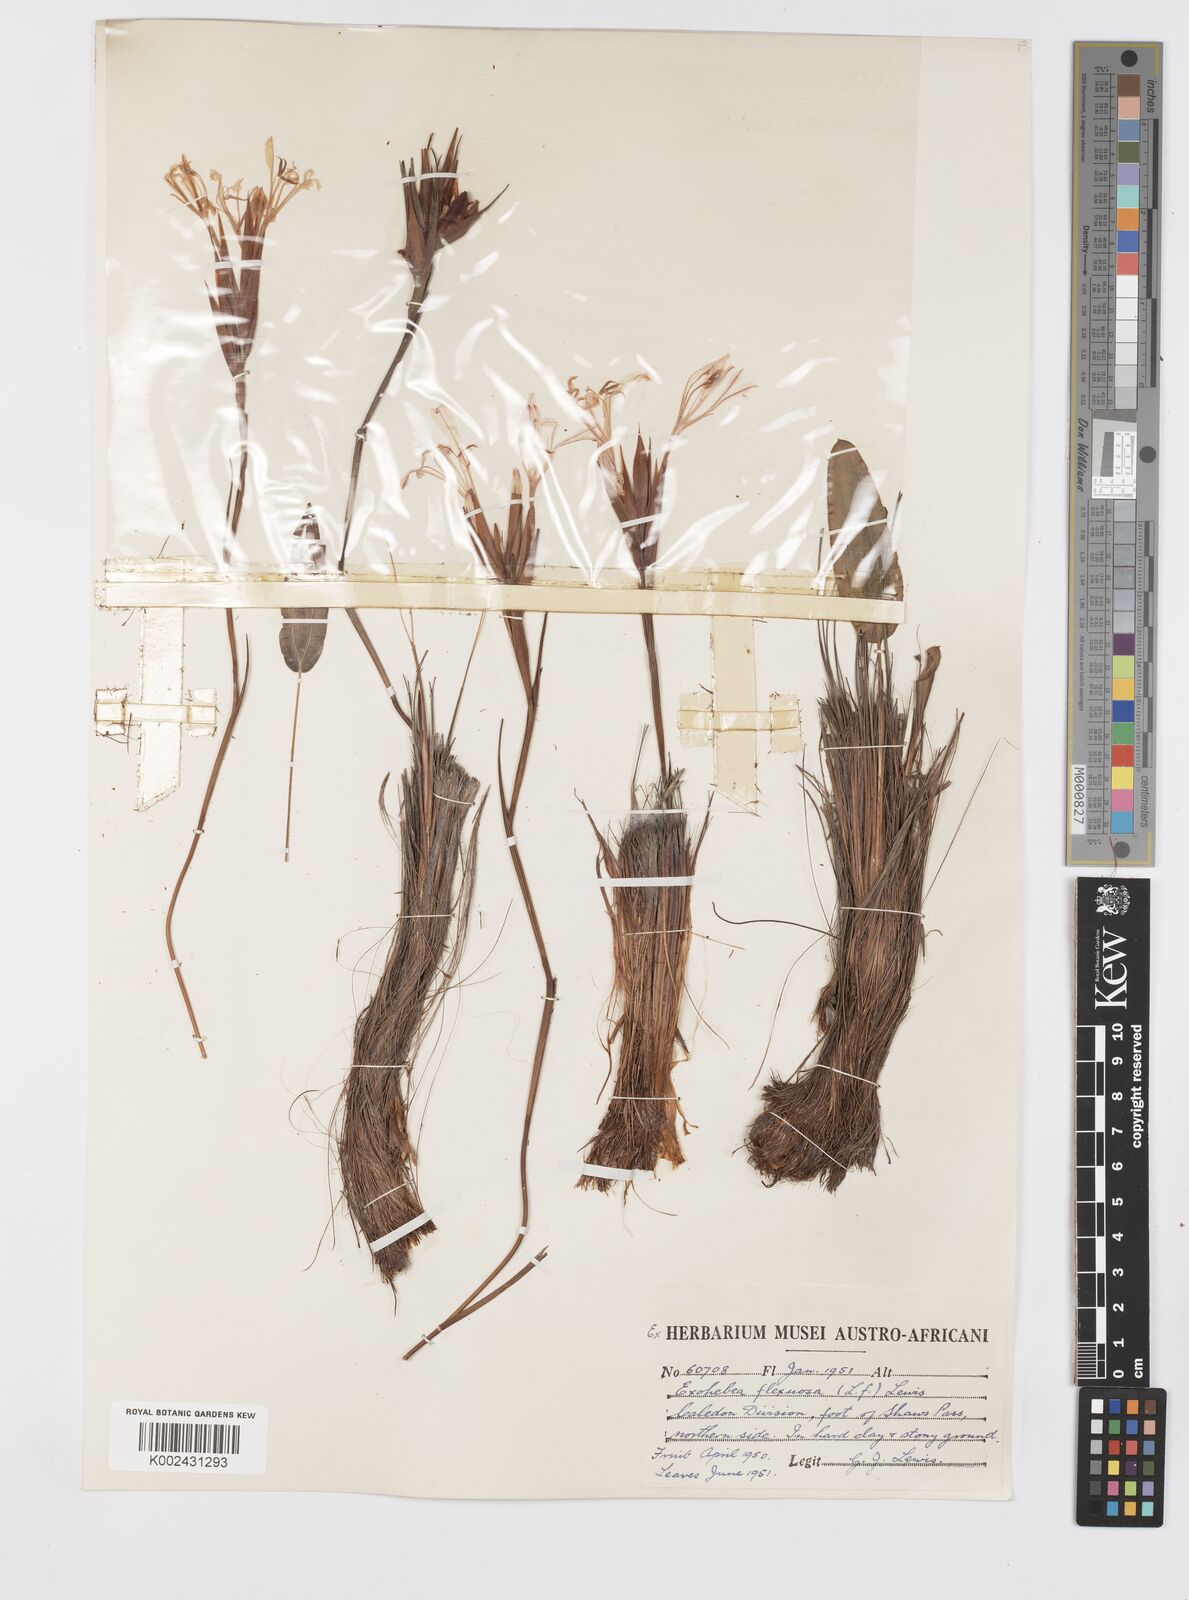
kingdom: Plantae
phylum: Tracheophyta
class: Liliopsida
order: Asparagales
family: Iridaceae
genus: Tritoniopsis
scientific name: Tritoniopsis flexuosa
